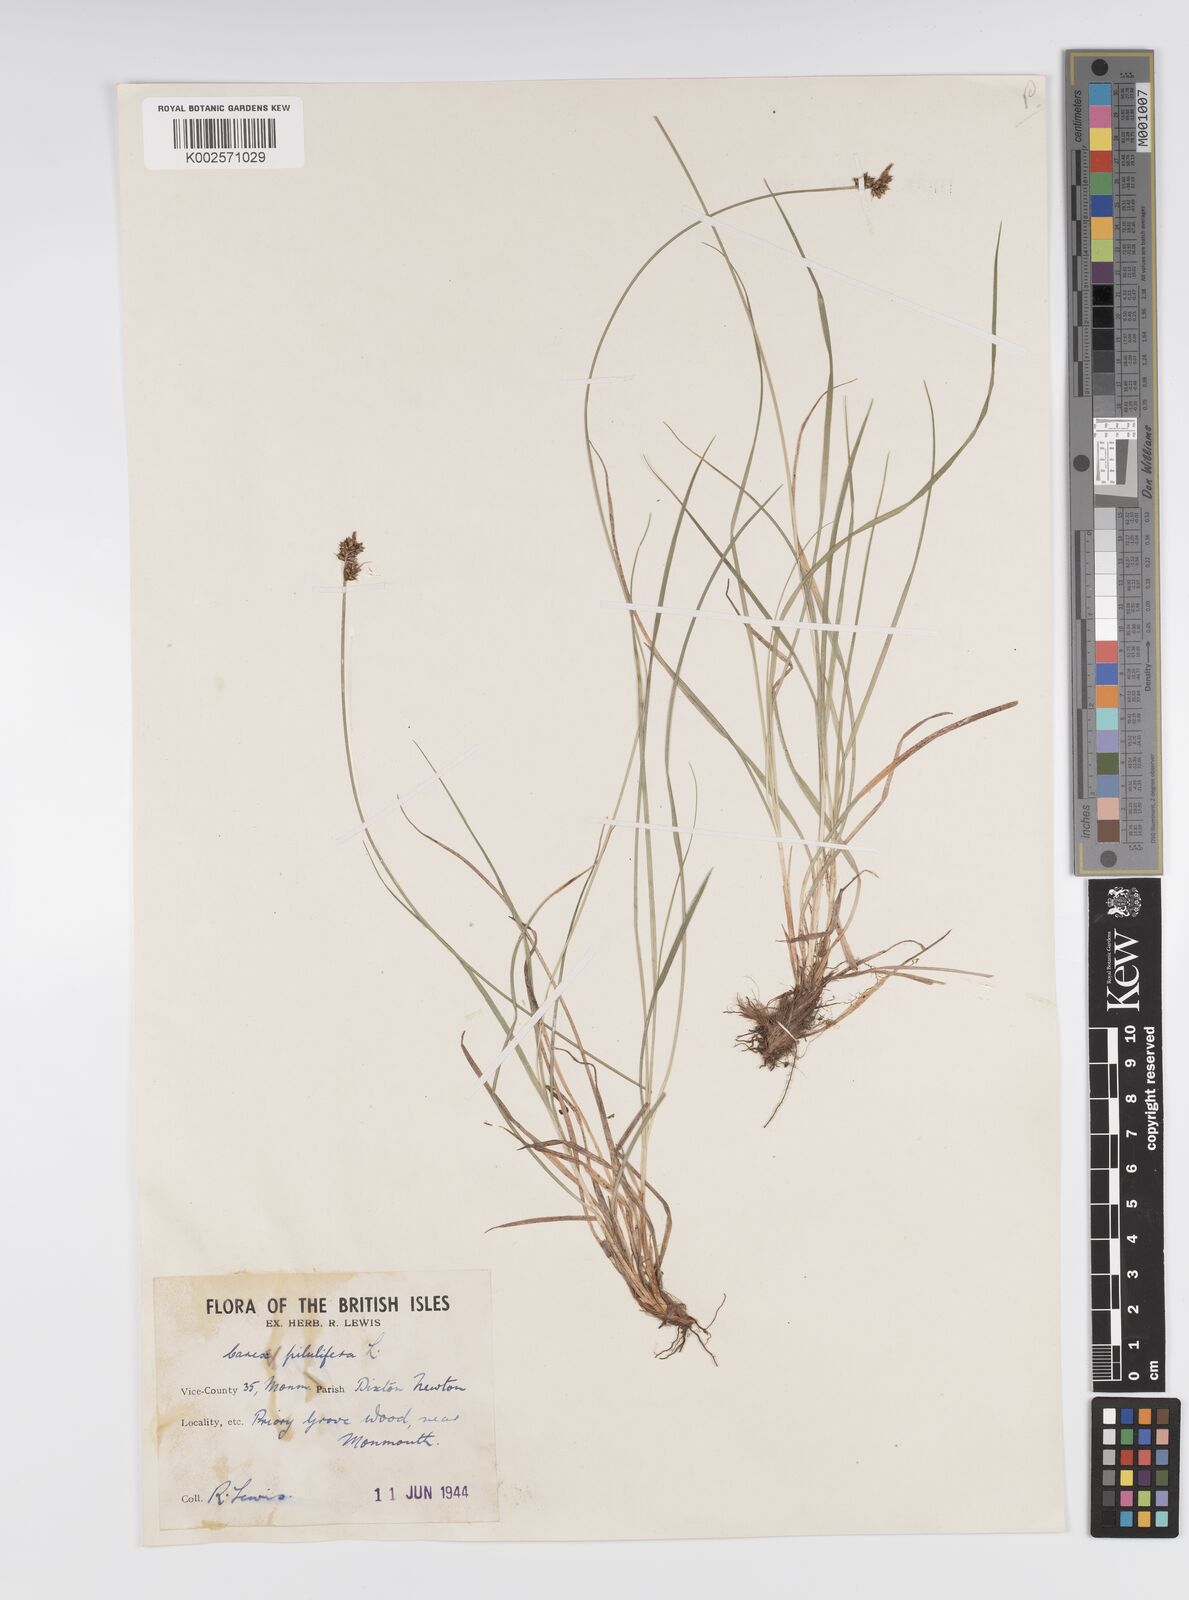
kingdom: Plantae
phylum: Tracheophyta
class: Liliopsida
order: Poales
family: Cyperaceae
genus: Carex
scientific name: Carex pilulifera
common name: Pill sedge
